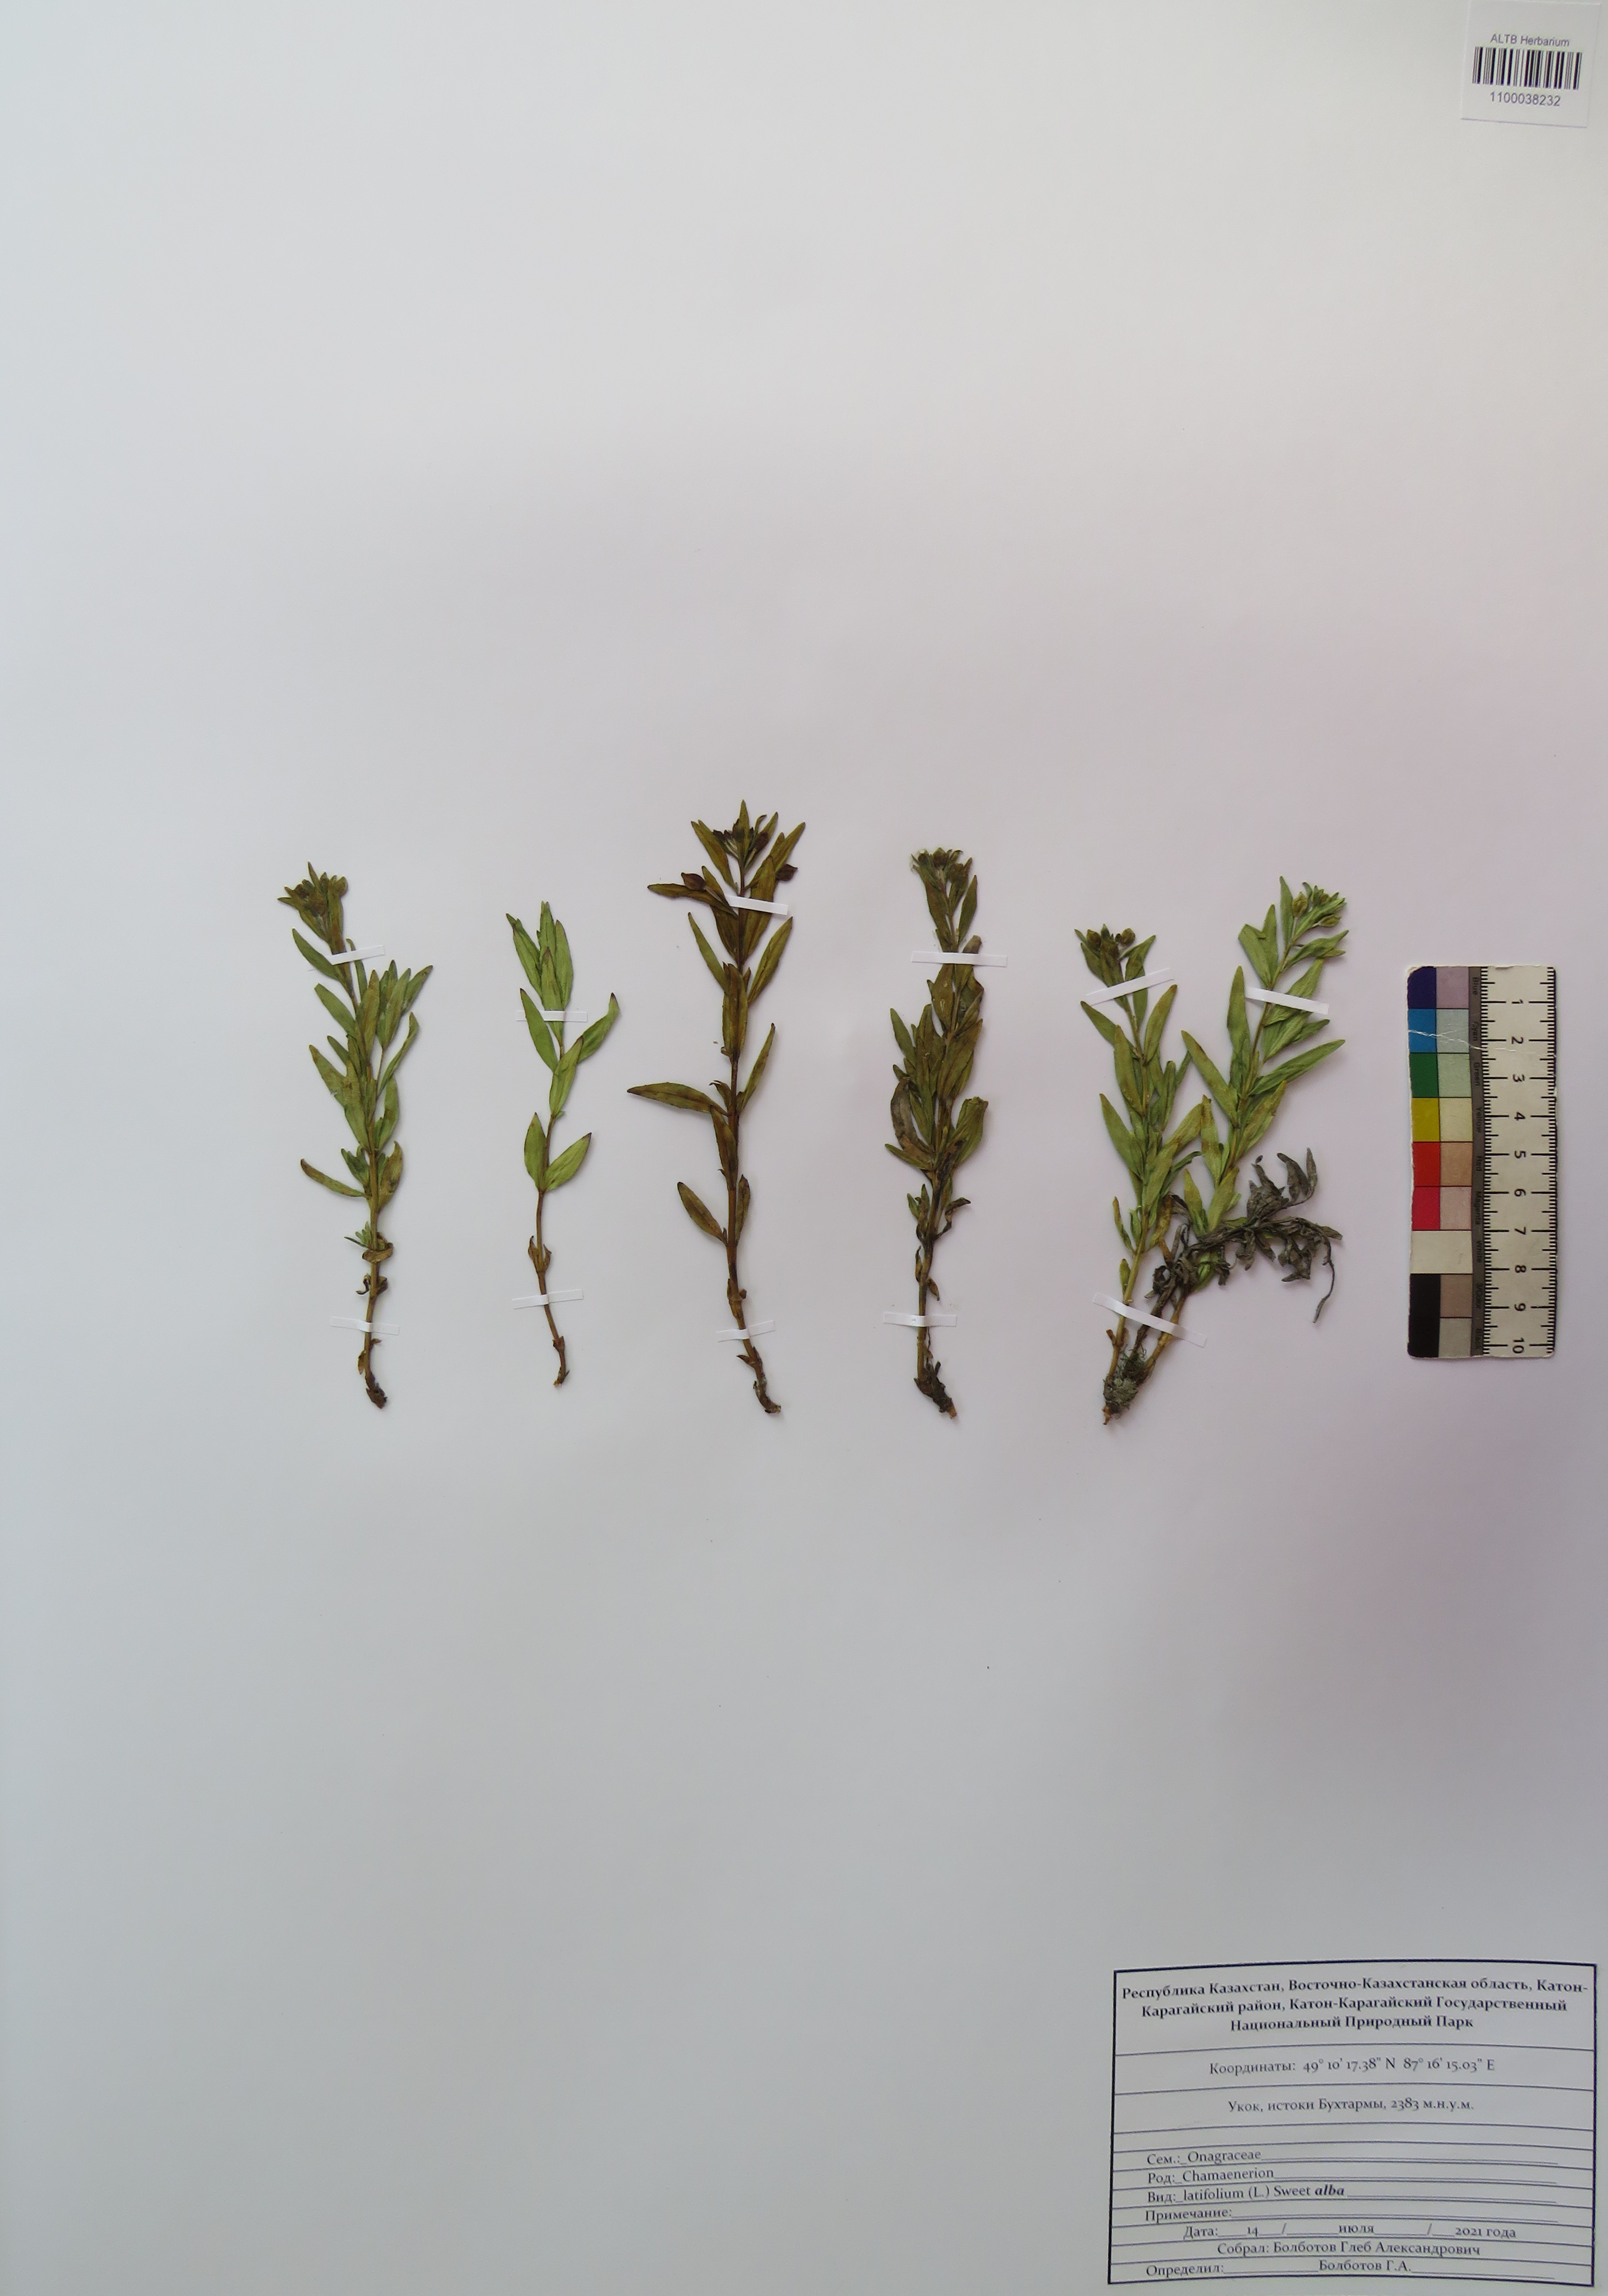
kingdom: Plantae
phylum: Tracheophyta
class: Magnoliopsida
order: Myrtales
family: Onagraceae
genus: Chamaenerion
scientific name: Chamaenerion latifolium
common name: Dwarf fireweed
